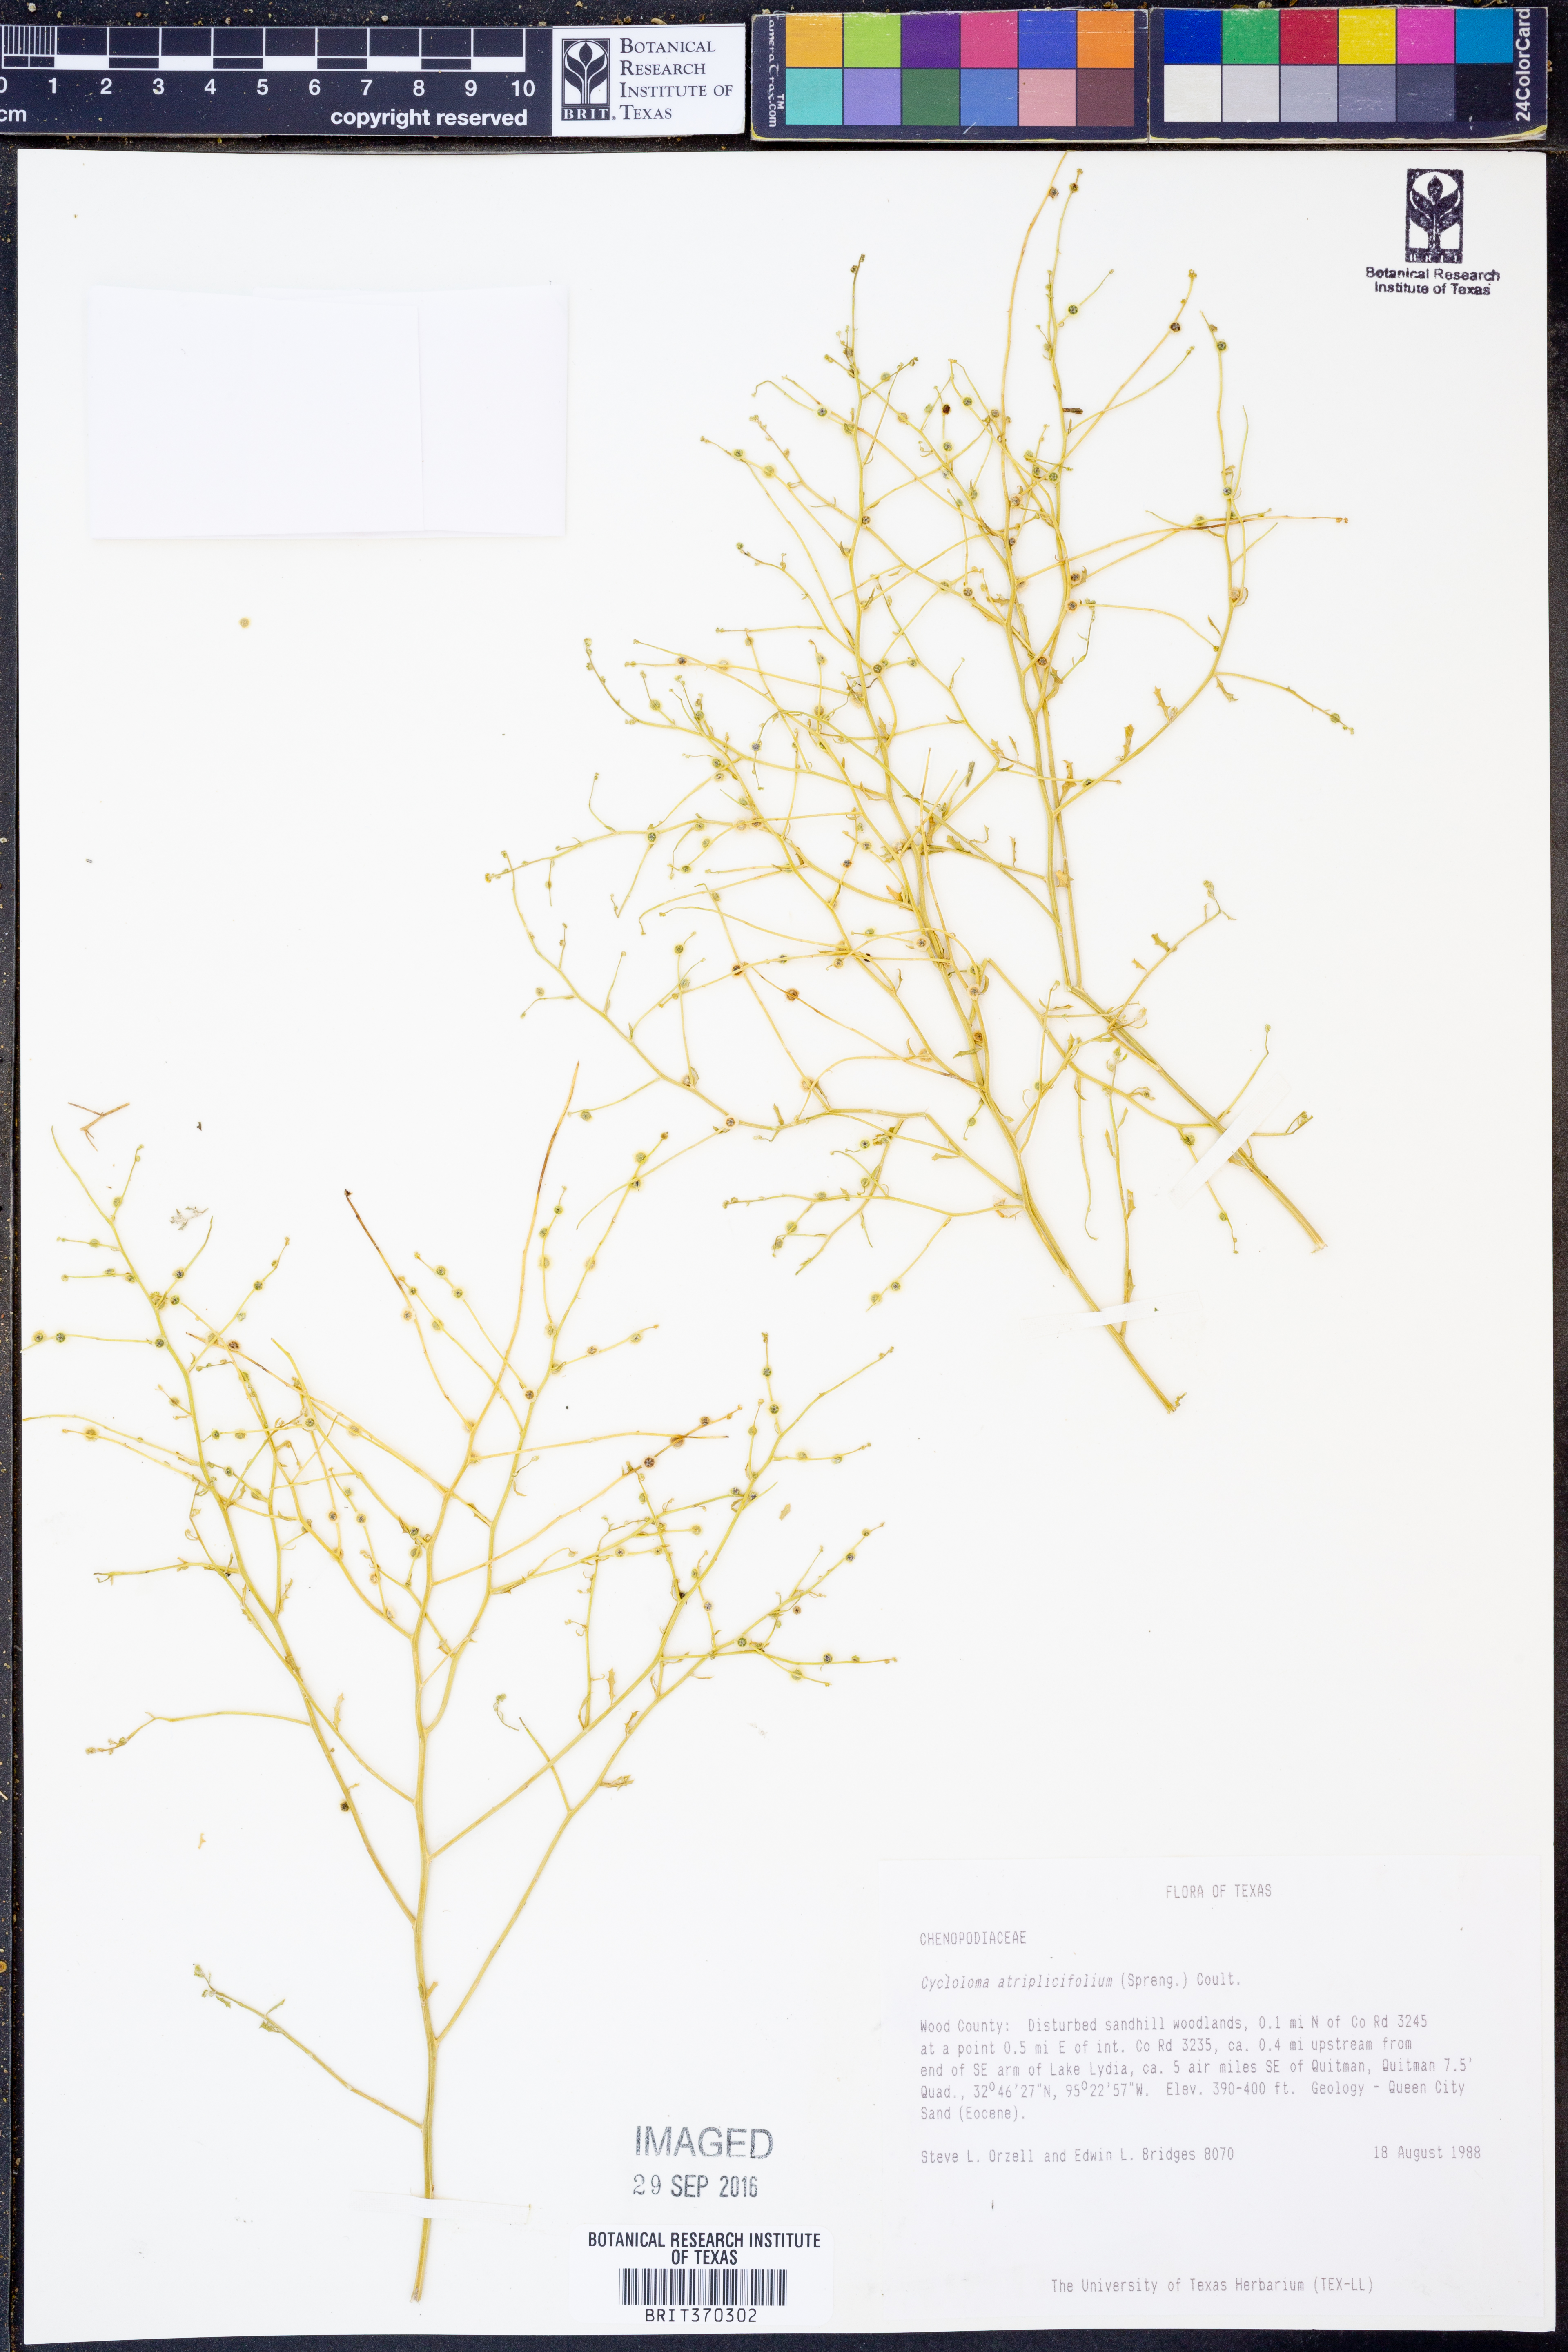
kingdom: Plantae
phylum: Tracheophyta
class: Magnoliopsida
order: Caryophyllales
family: Amaranthaceae
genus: Dysphania
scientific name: Dysphania atriplicifolia
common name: Plains tumbleweed
